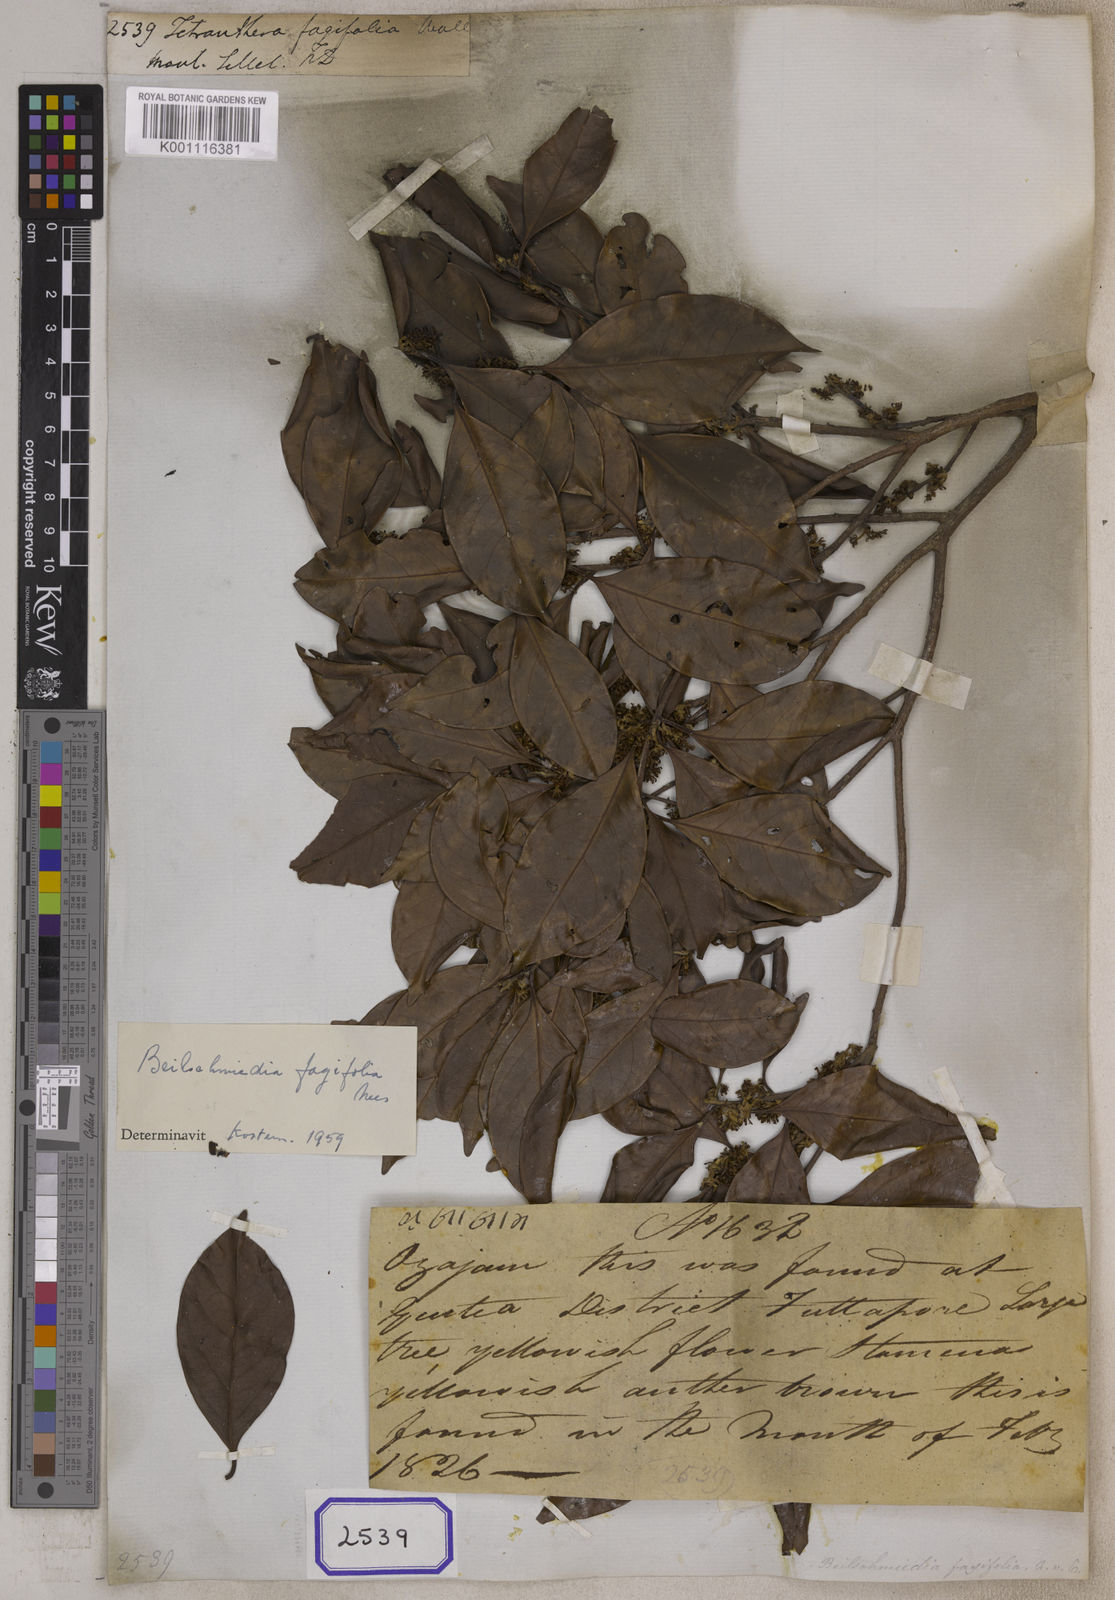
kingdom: Plantae
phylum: Tracheophyta
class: Magnoliopsida
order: Laurales
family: Lauraceae
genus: Beilschmiedia
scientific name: Beilschmiedia fagifolia
